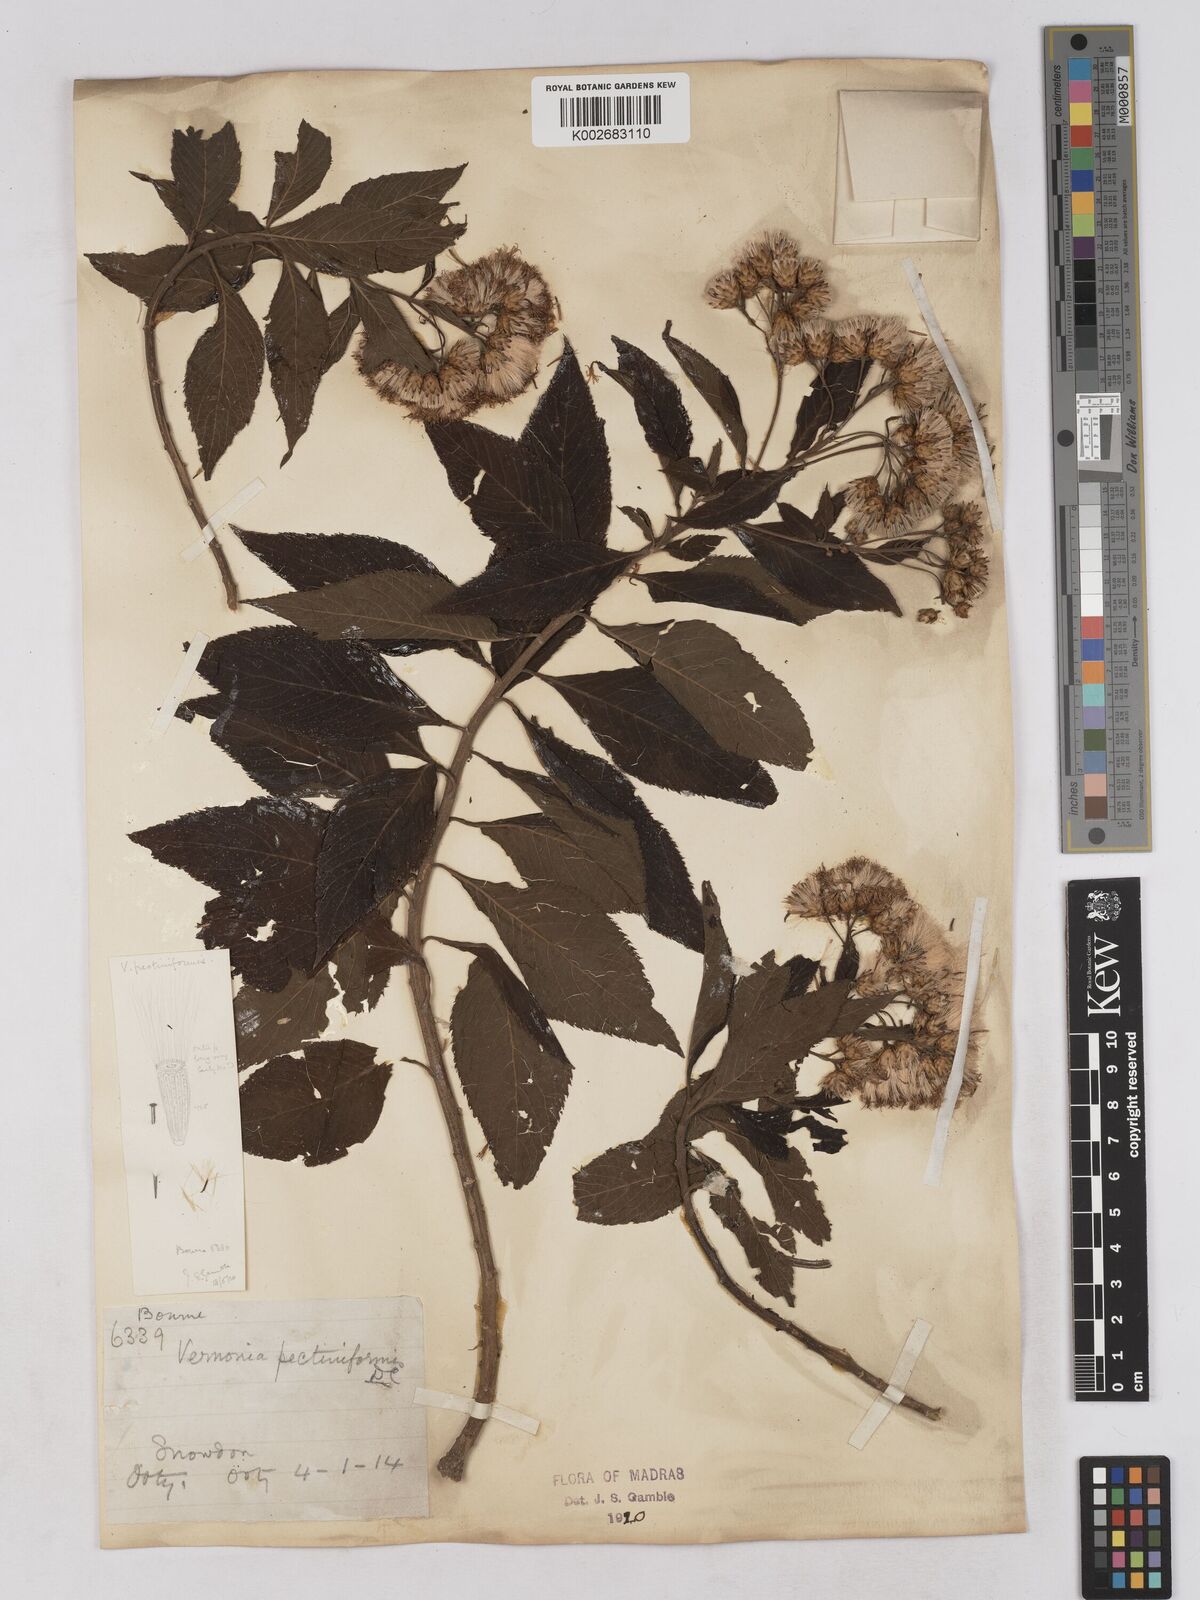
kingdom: Plantae
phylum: Tracheophyta
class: Magnoliopsida
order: Asterales
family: Asteraceae
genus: Gymnanthemum
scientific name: Gymnanthemum pectiniforme
